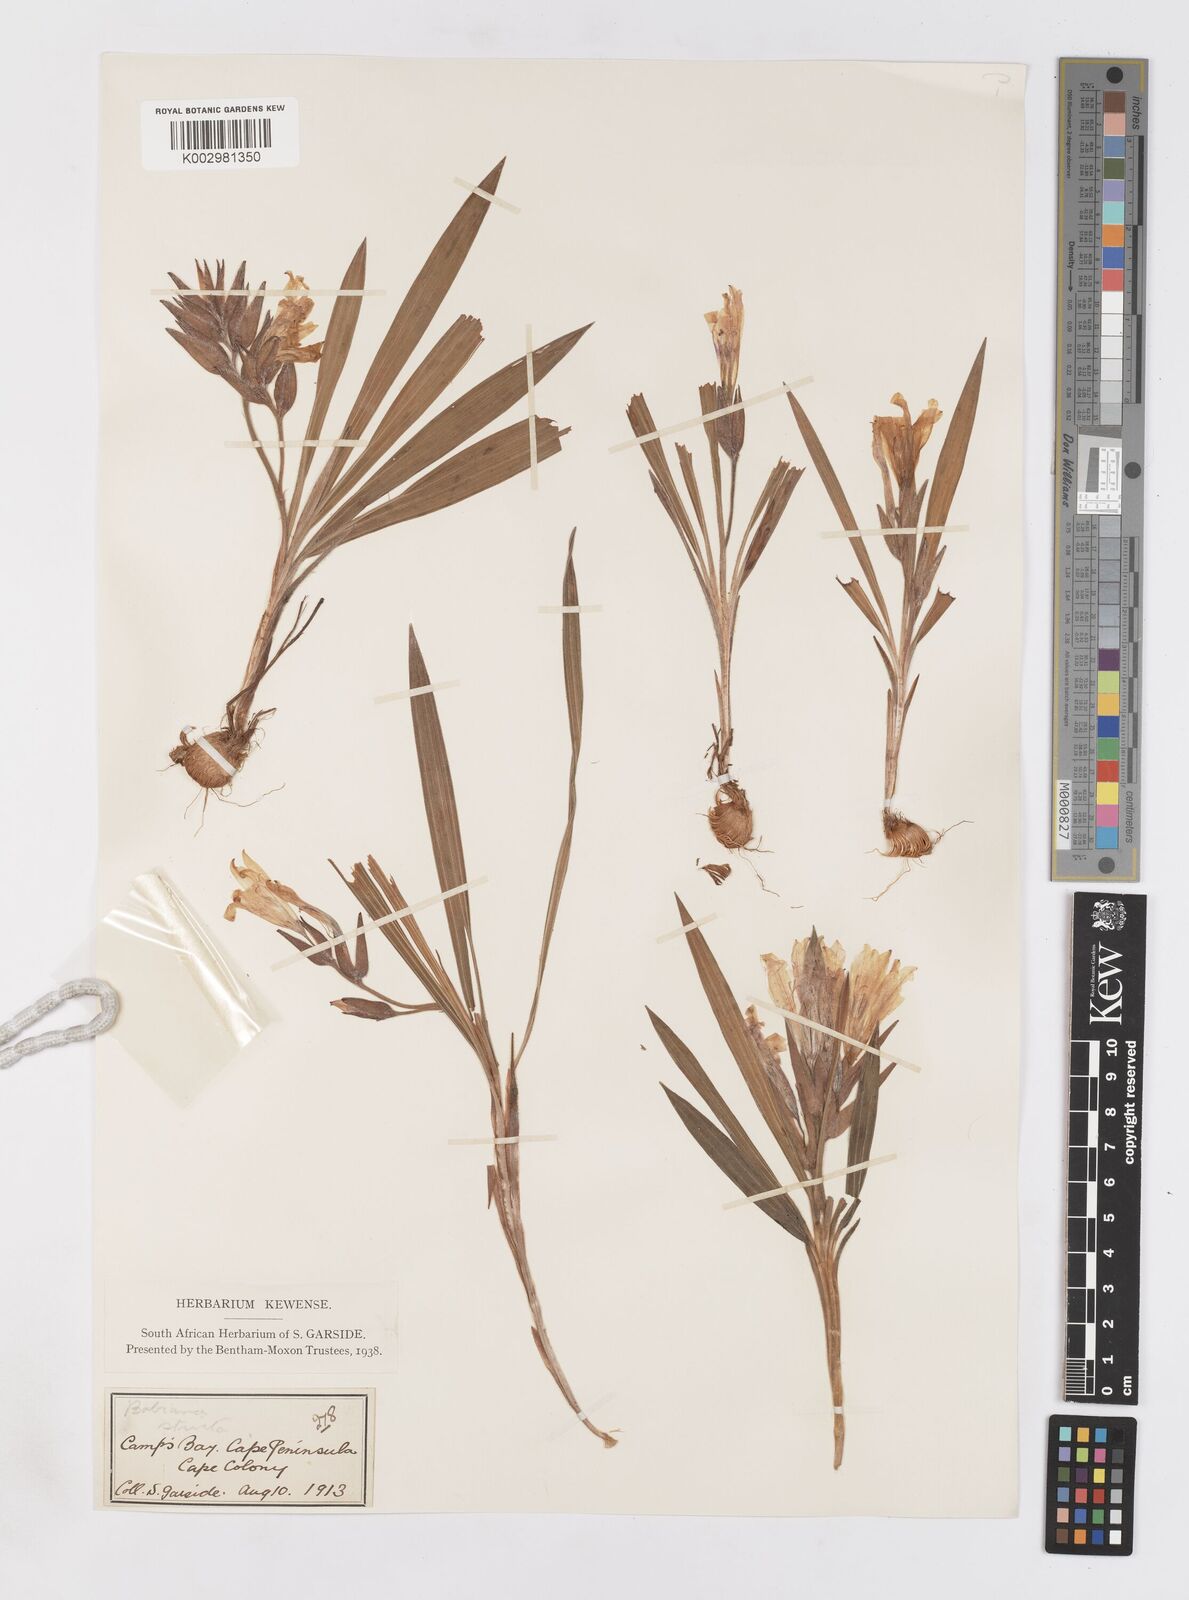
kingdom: Plantae
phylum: Tracheophyta
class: Liliopsida
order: Asparagales
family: Iridaceae
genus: Babiana
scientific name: Babiana
